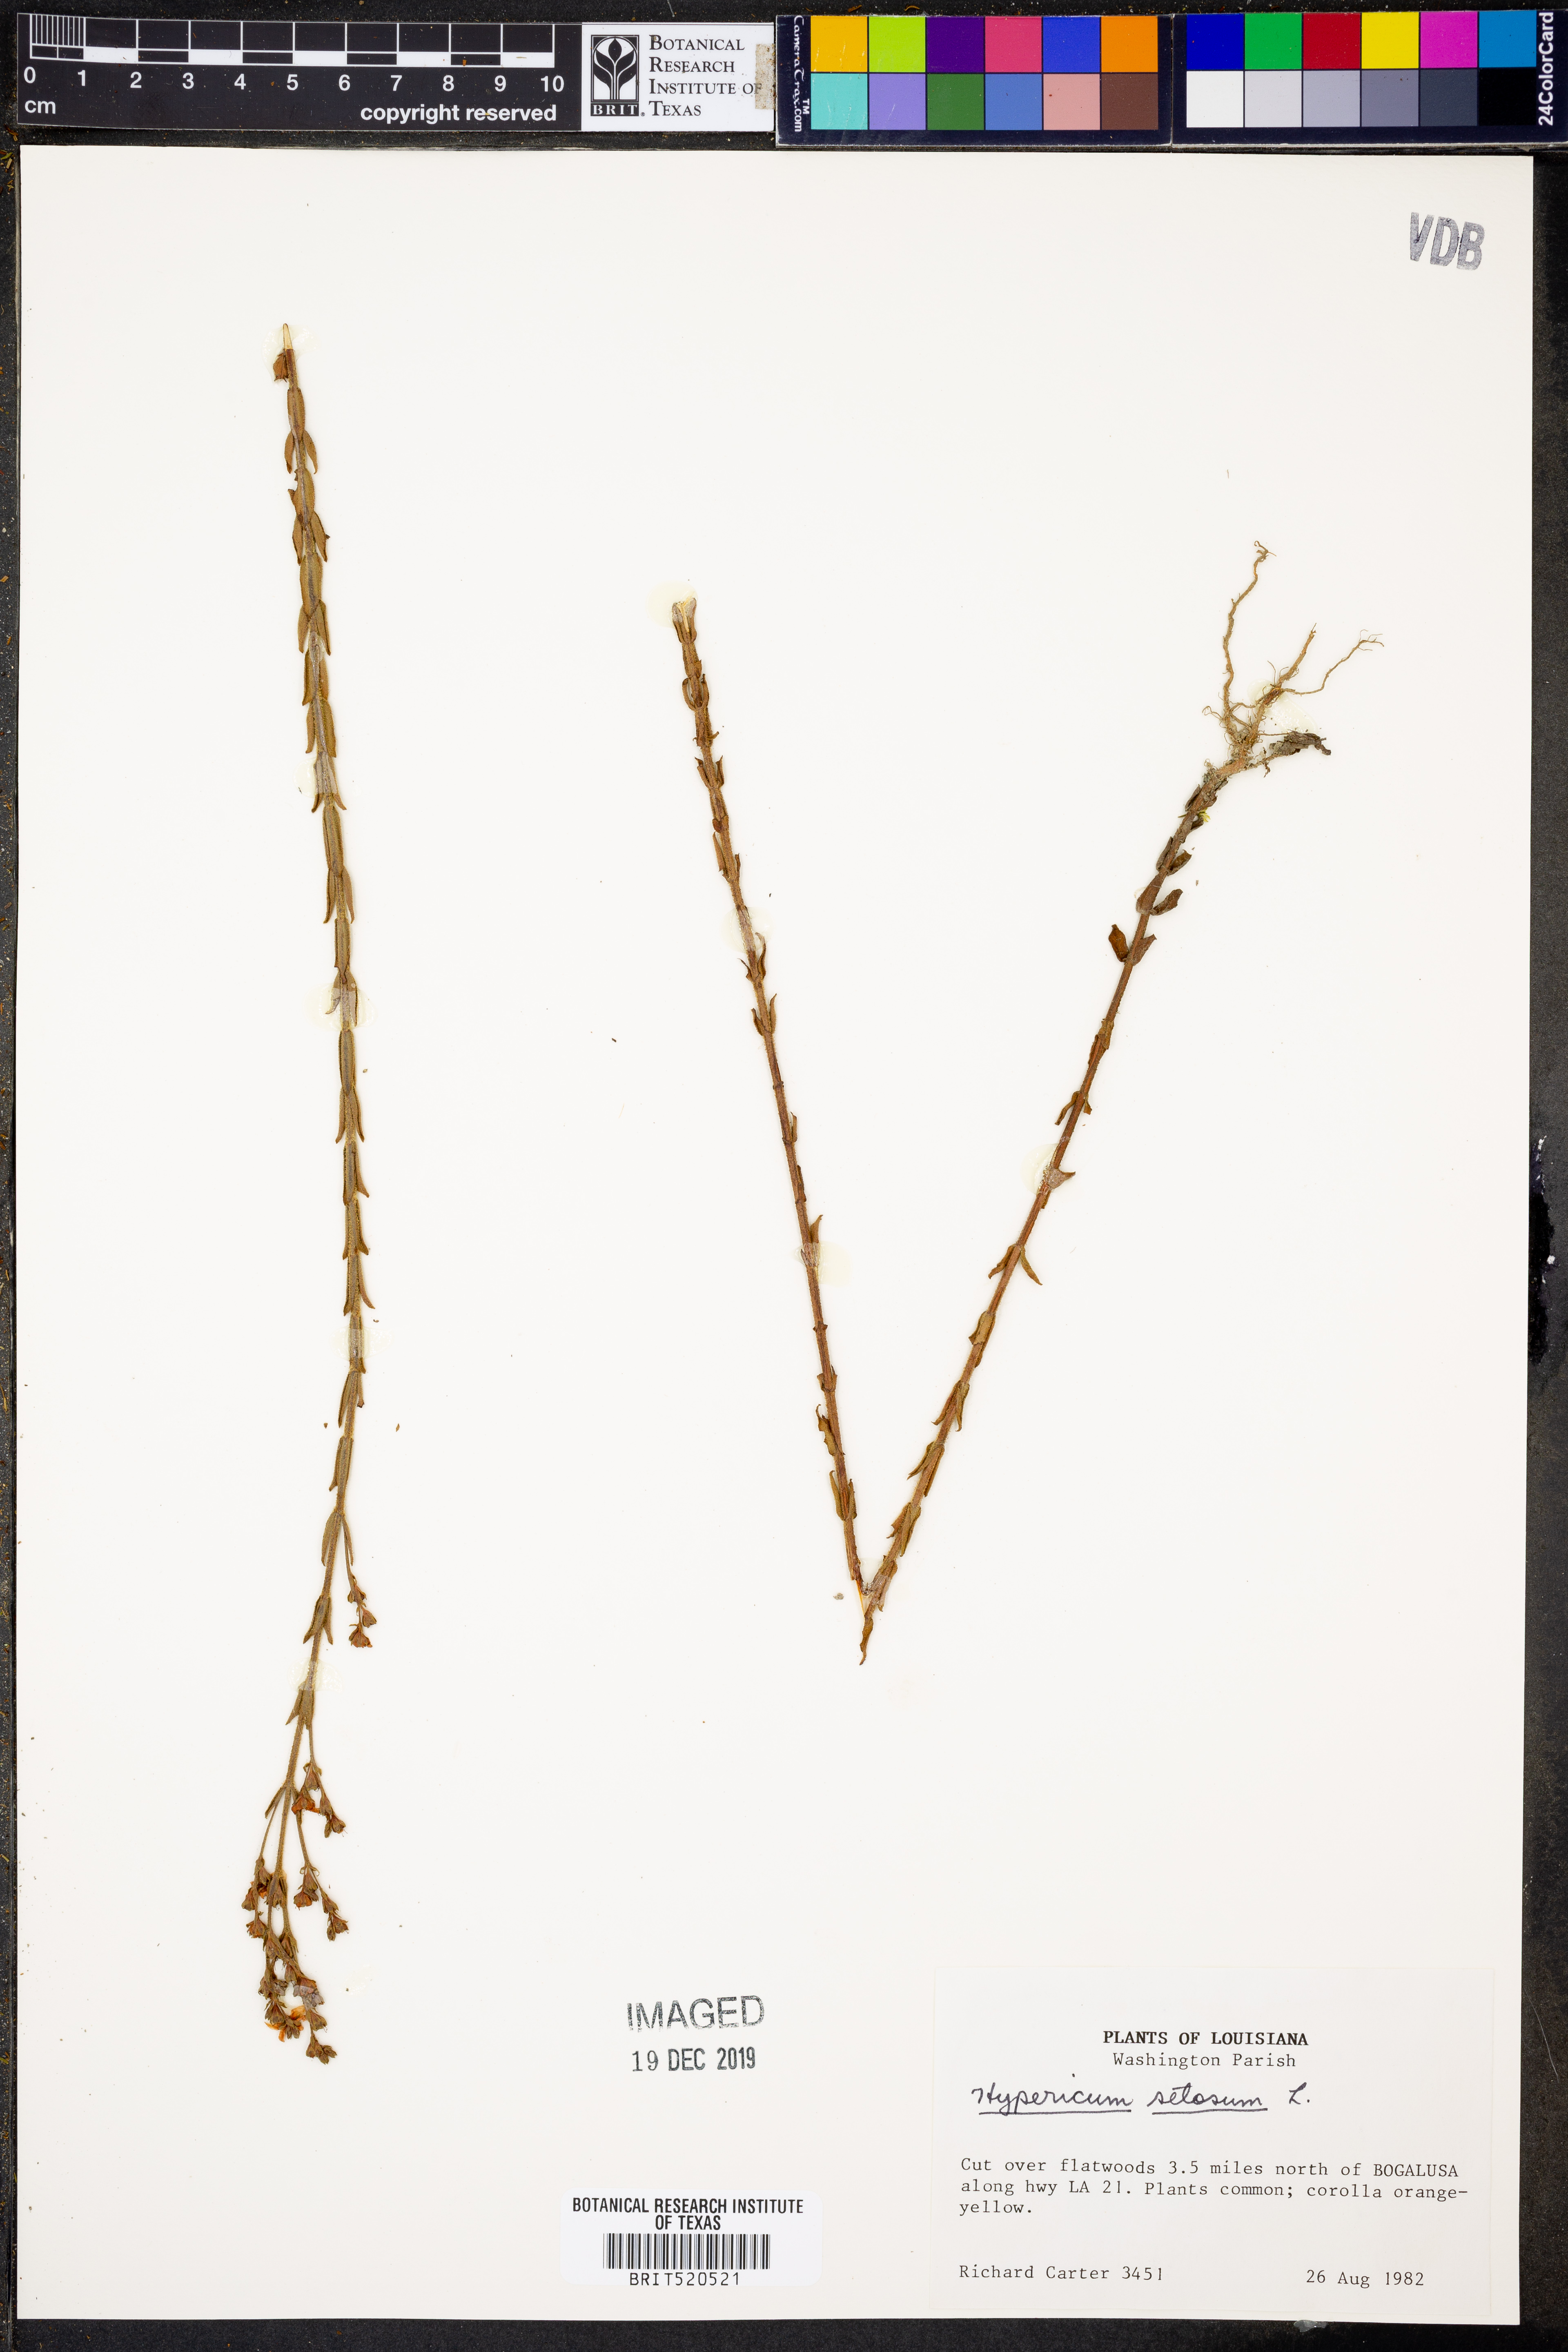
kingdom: Plantae
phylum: Tracheophyta
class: Magnoliopsida
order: Malpighiales
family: Hypericaceae
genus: Hypericum
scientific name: Hypericum setosum
